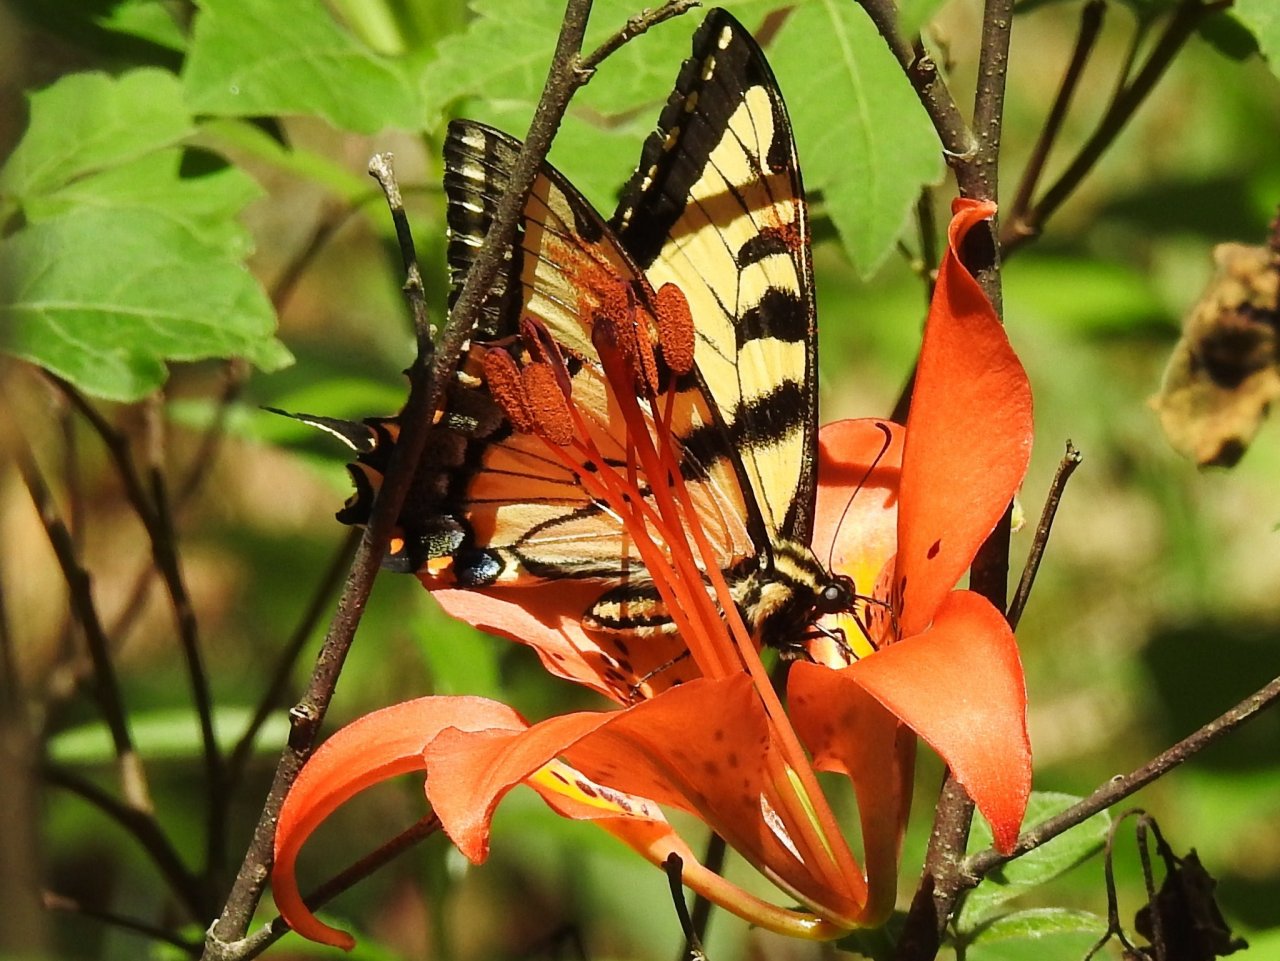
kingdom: Animalia
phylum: Arthropoda
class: Insecta
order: Lepidoptera
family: Papilionidae
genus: Pterourus
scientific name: Pterourus glaucus
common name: Eastern Tiger Swallowtail
